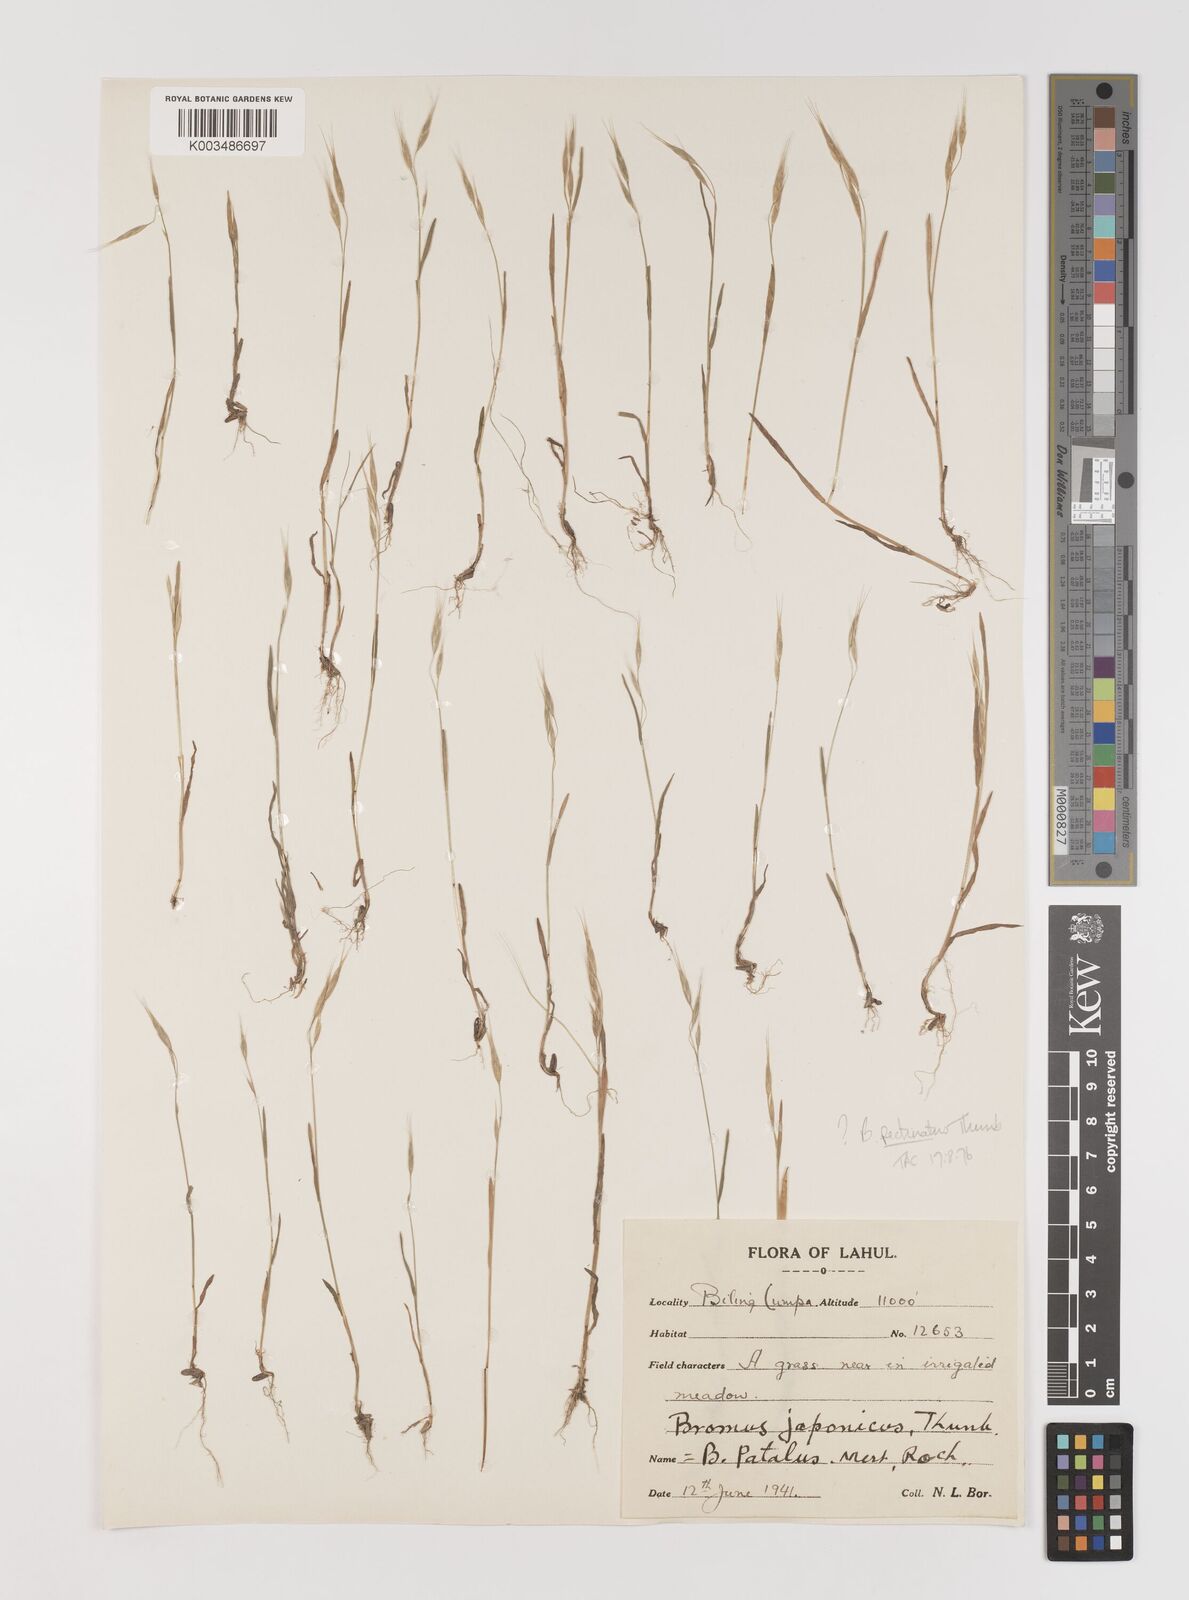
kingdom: Plantae
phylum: Tracheophyta
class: Liliopsida
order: Poales
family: Poaceae
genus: Bromus
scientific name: Bromus pectinatus
